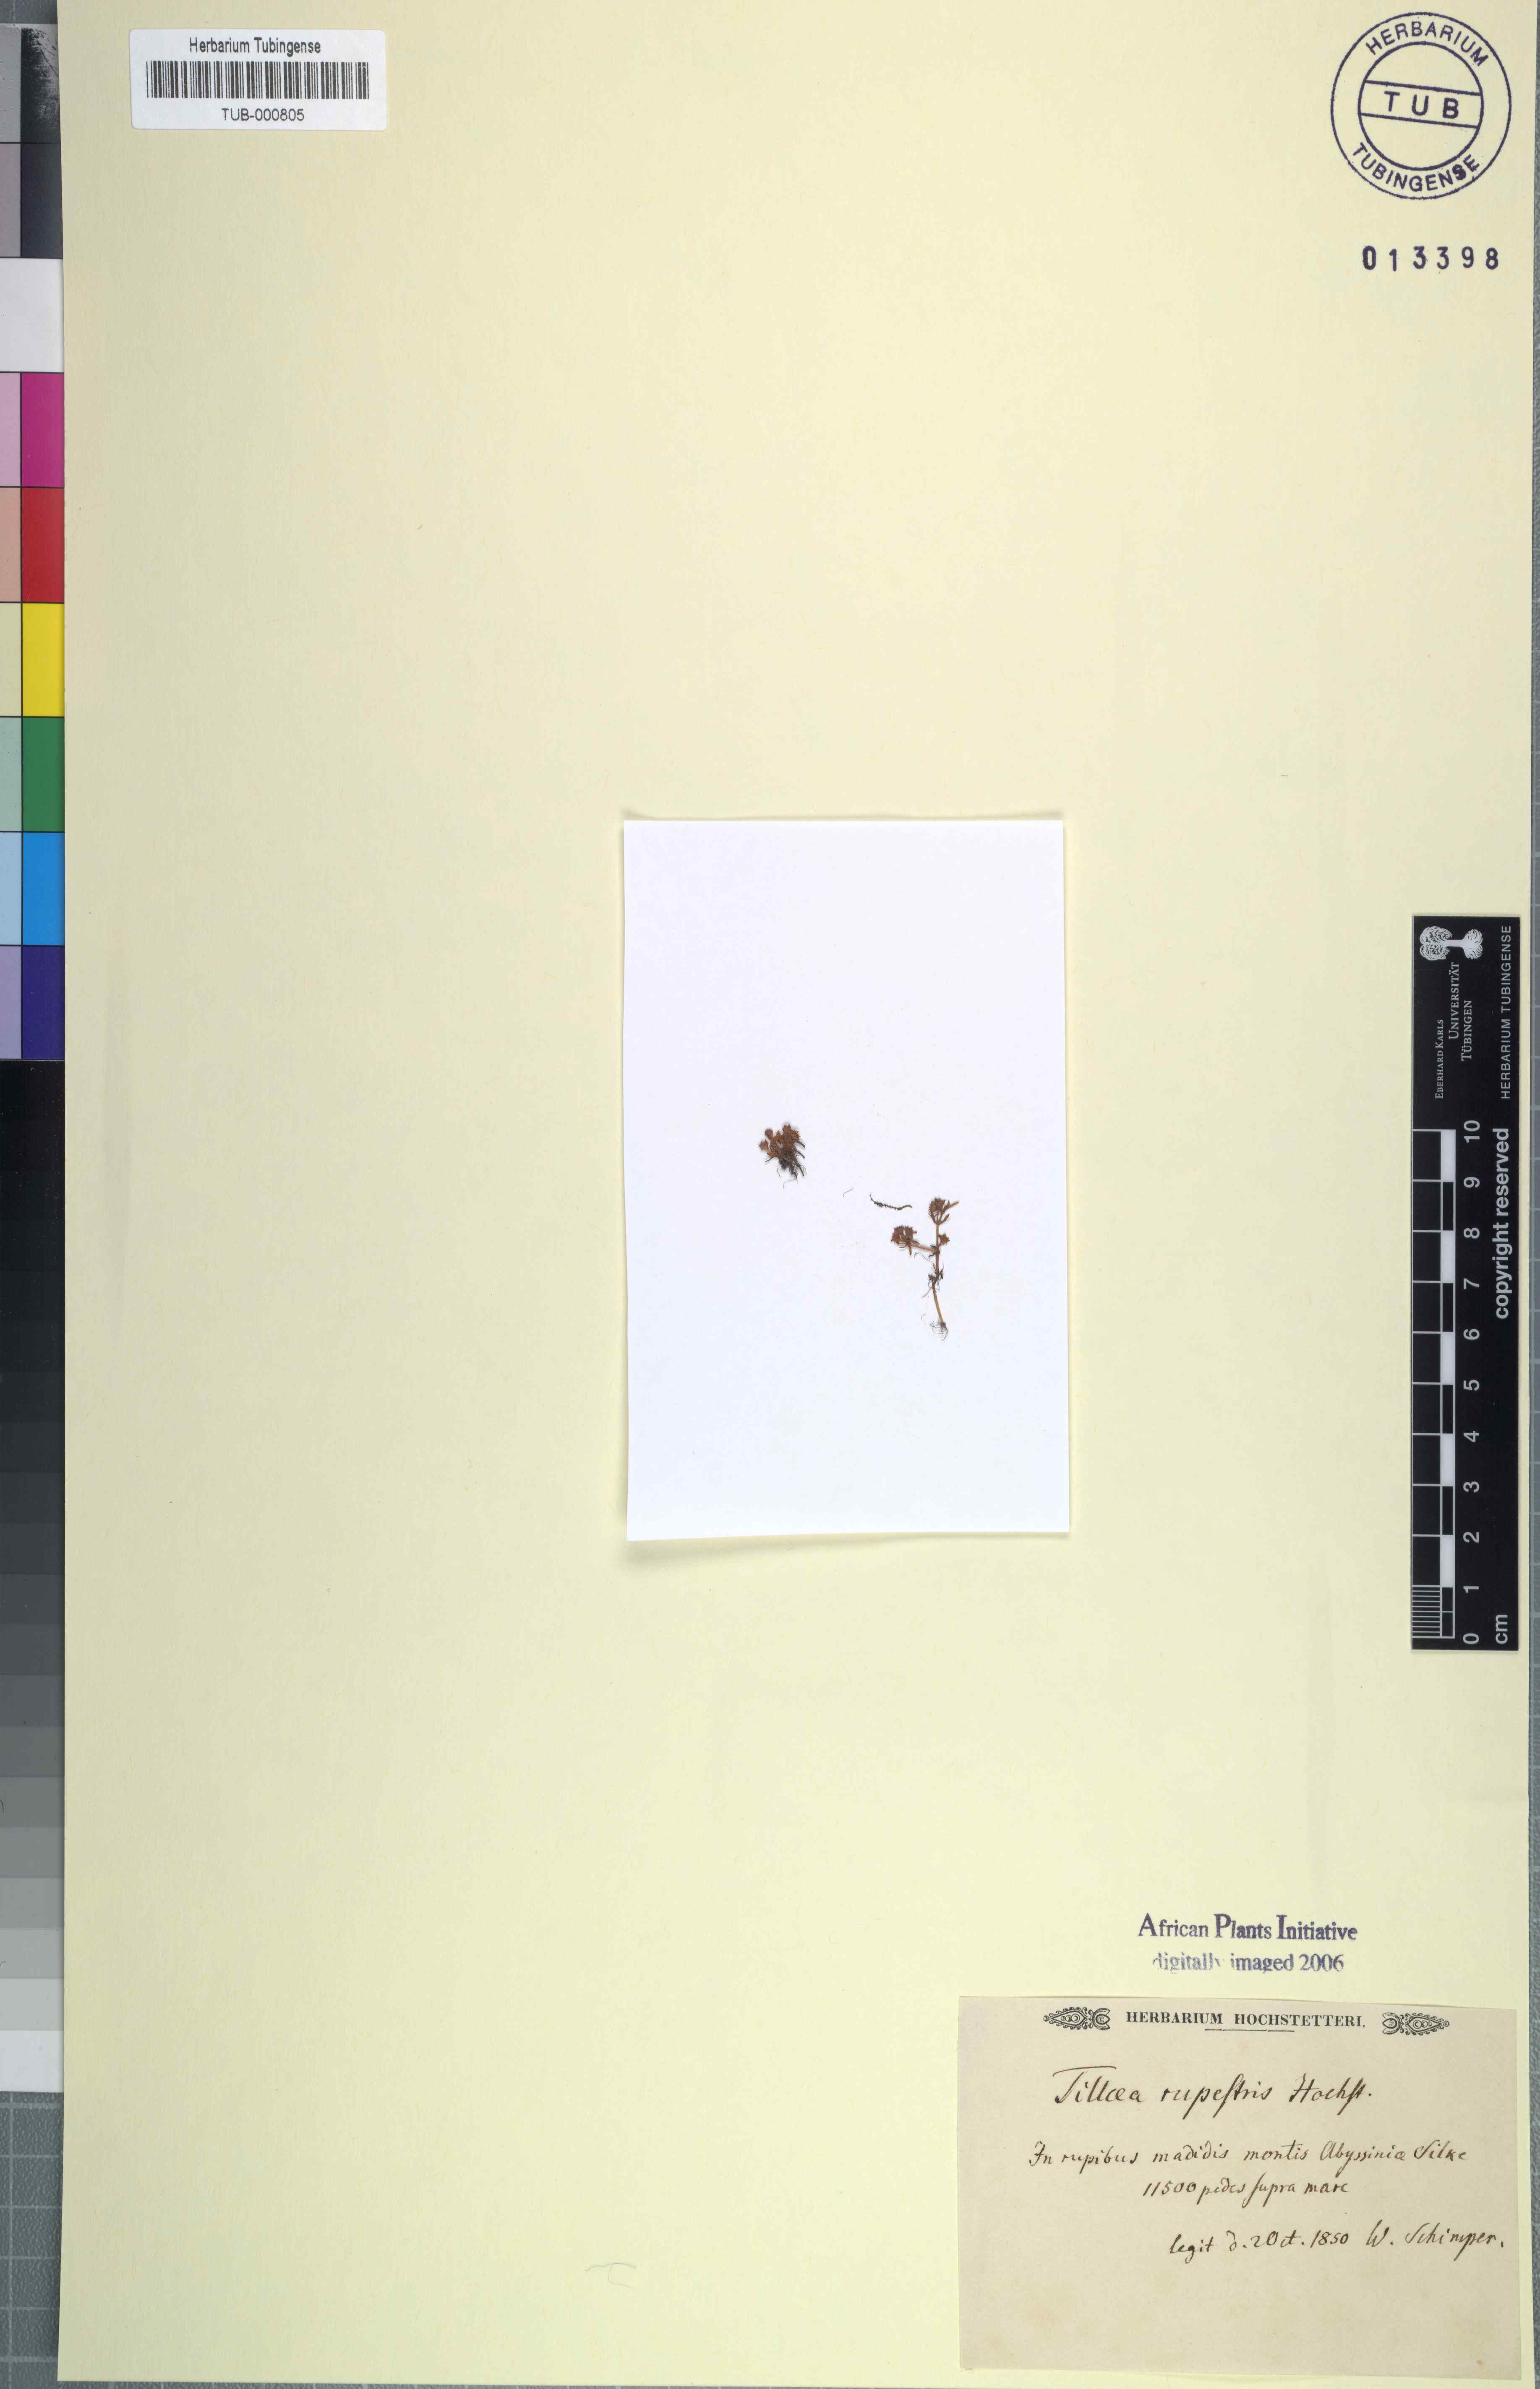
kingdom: Plantae
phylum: Tracheophyta
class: Magnoliopsida
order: Saxifragales
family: Crassulaceae
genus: Crassula
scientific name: Crassula
